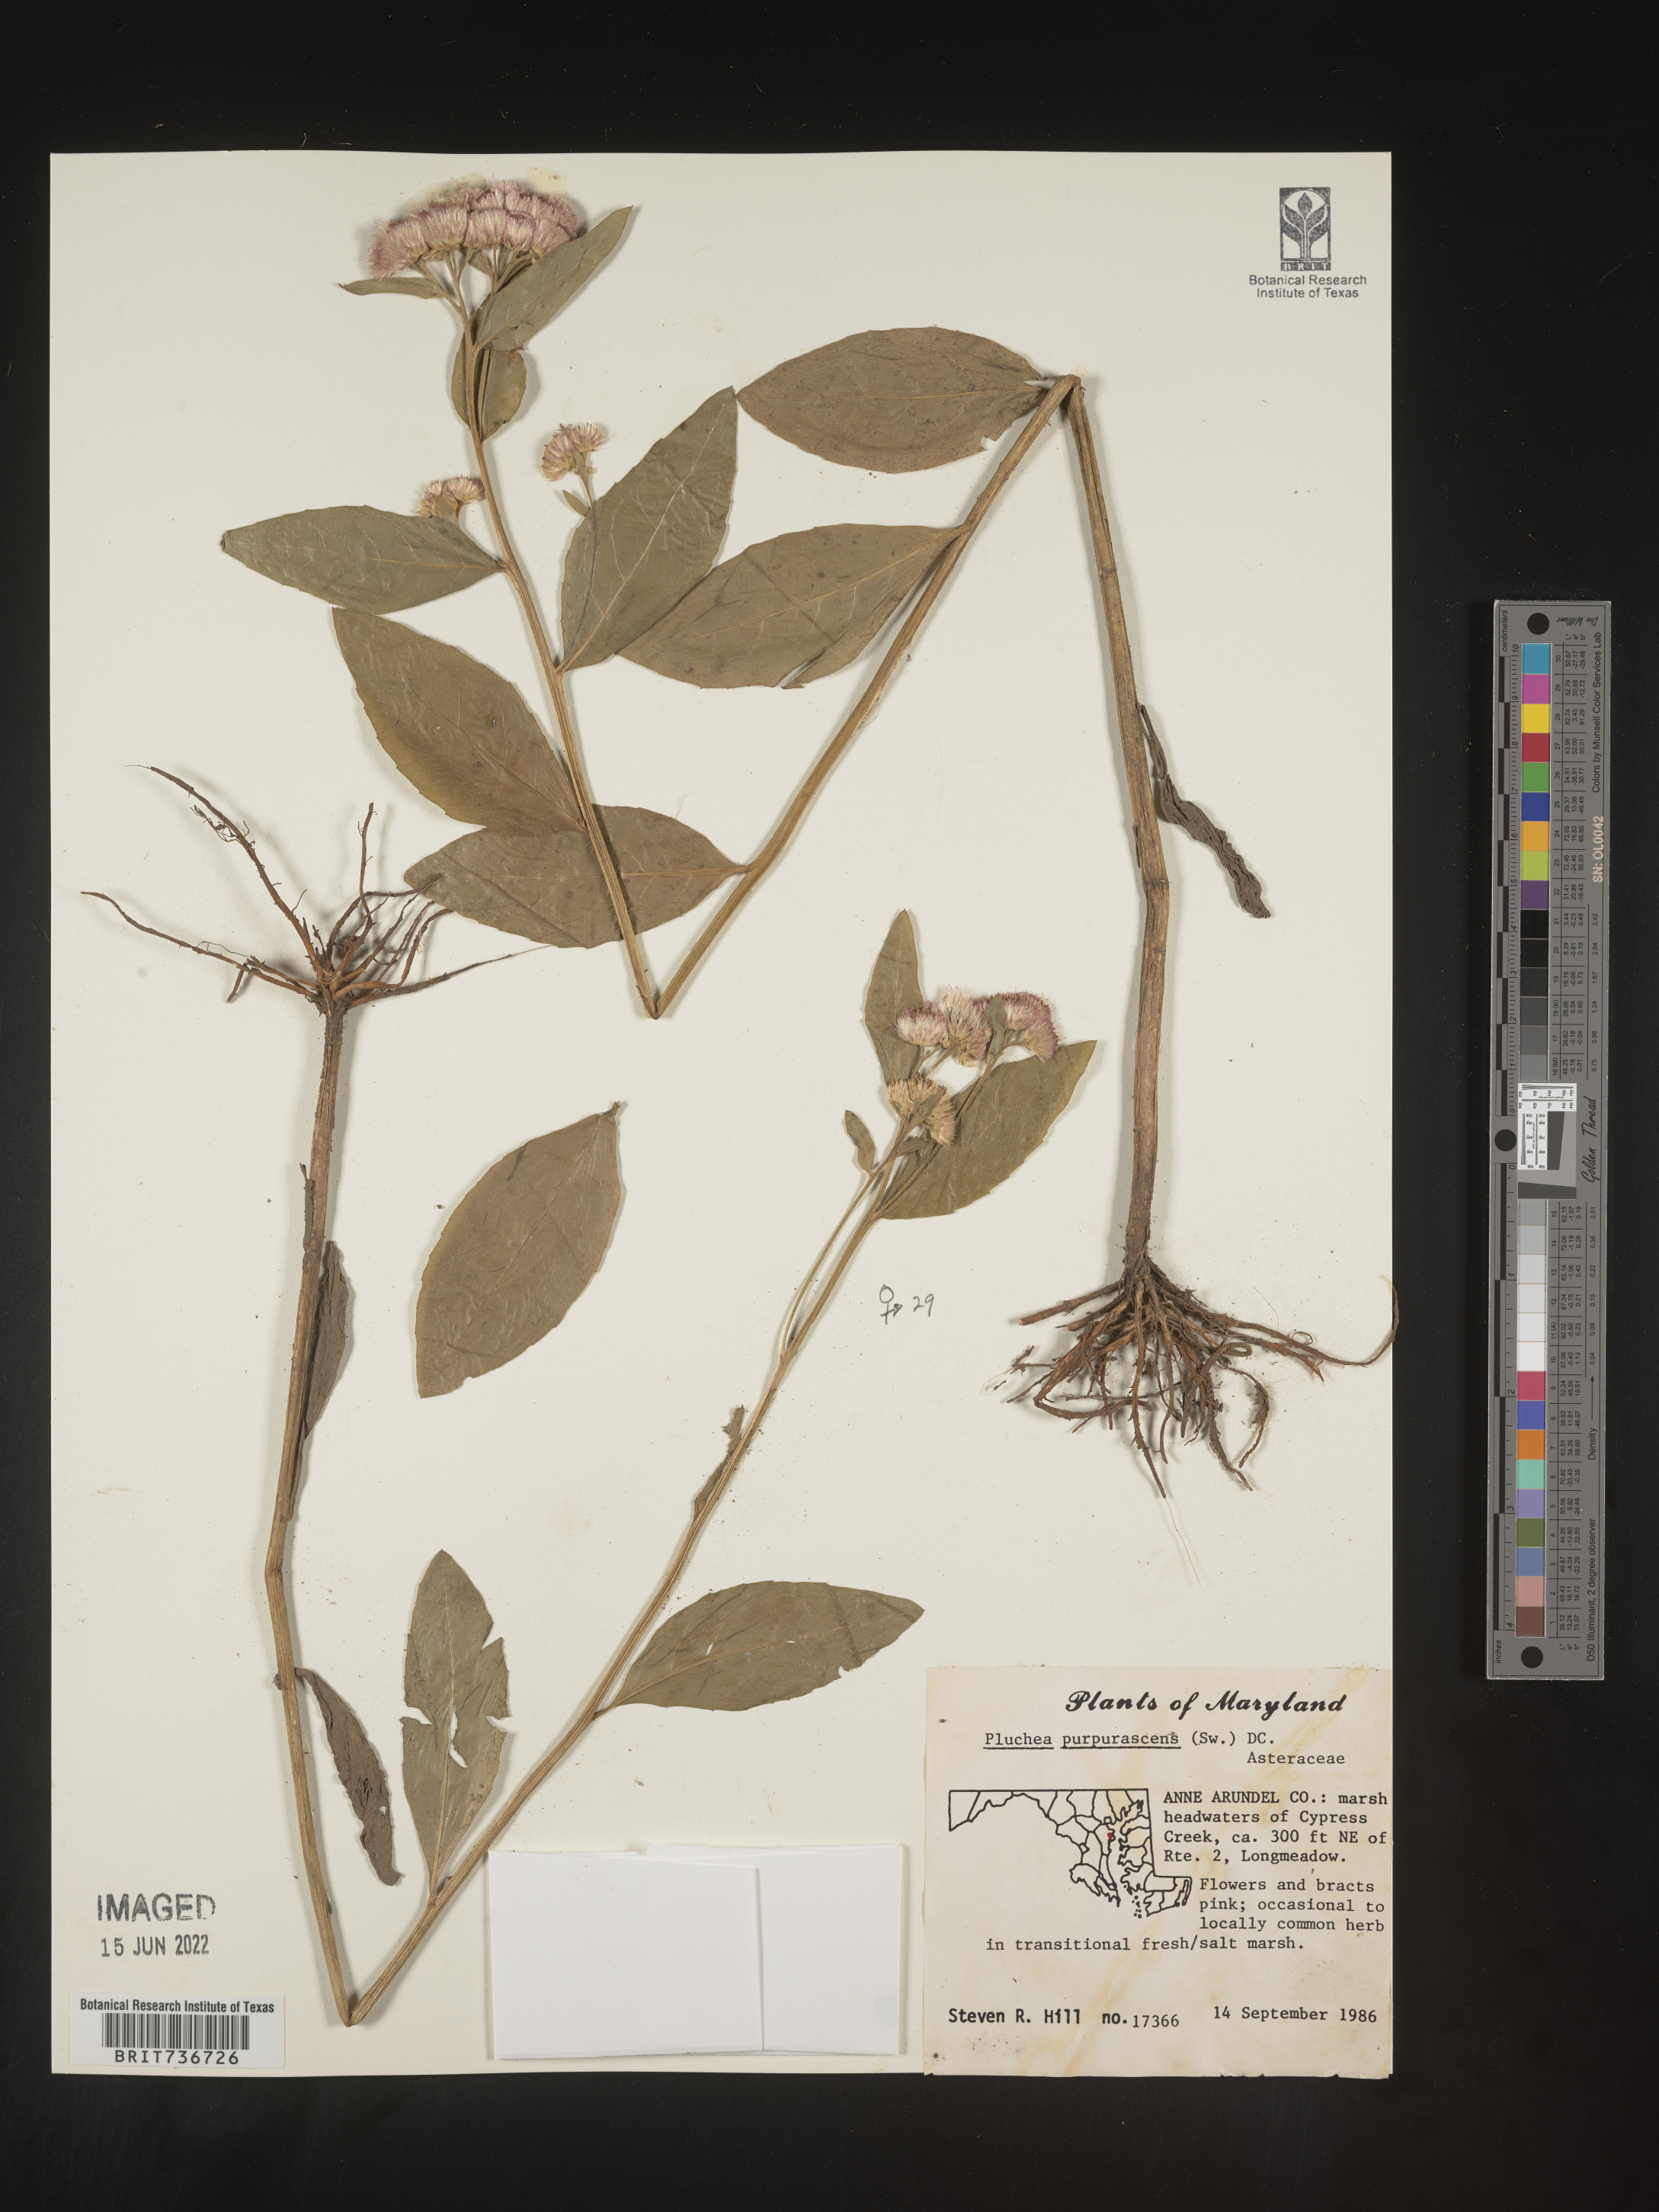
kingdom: Plantae
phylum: Tracheophyta
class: Magnoliopsida
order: Asterales
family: Asteraceae
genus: Pluchea
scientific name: Pluchea odorata
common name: Saltmarsh fleabane
